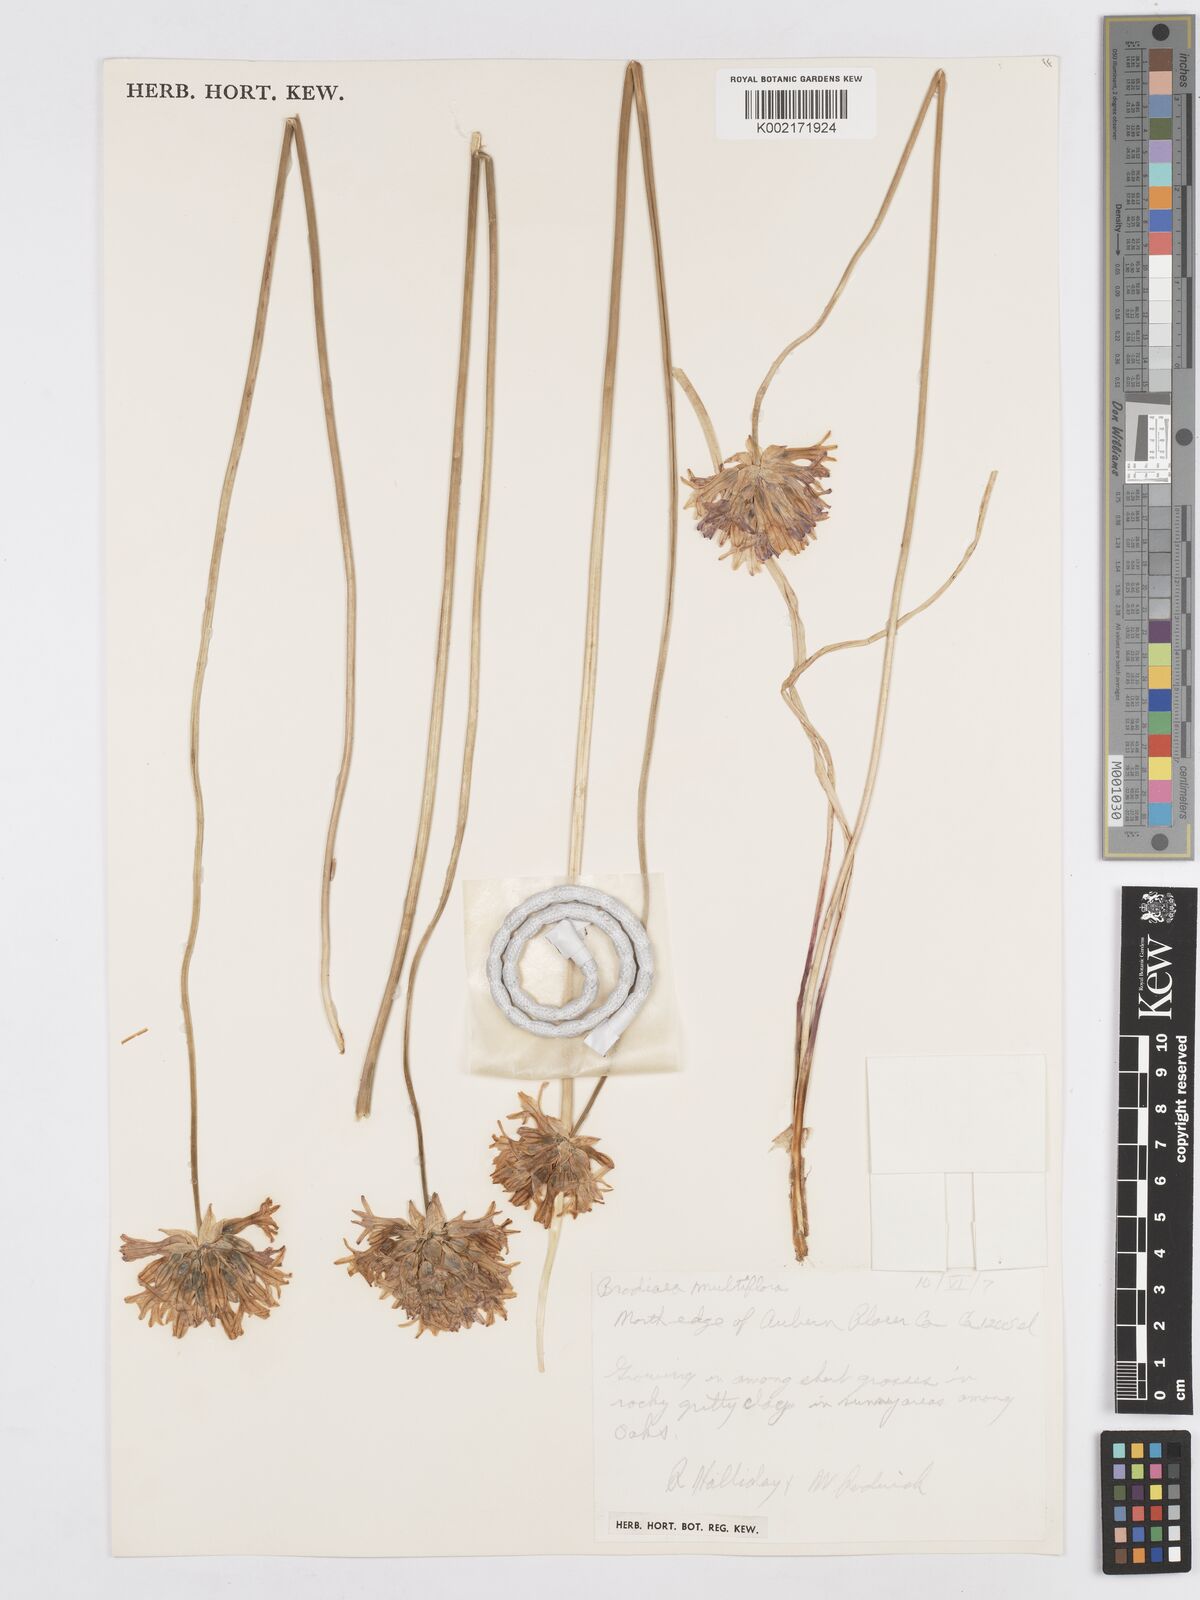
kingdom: Plantae
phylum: Tracheophyta
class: Liliopsida
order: Asparagales
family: Asparagaceae
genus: Dichelostemma
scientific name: Dichelostemma multiflorum
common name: Round-tooth ookow
